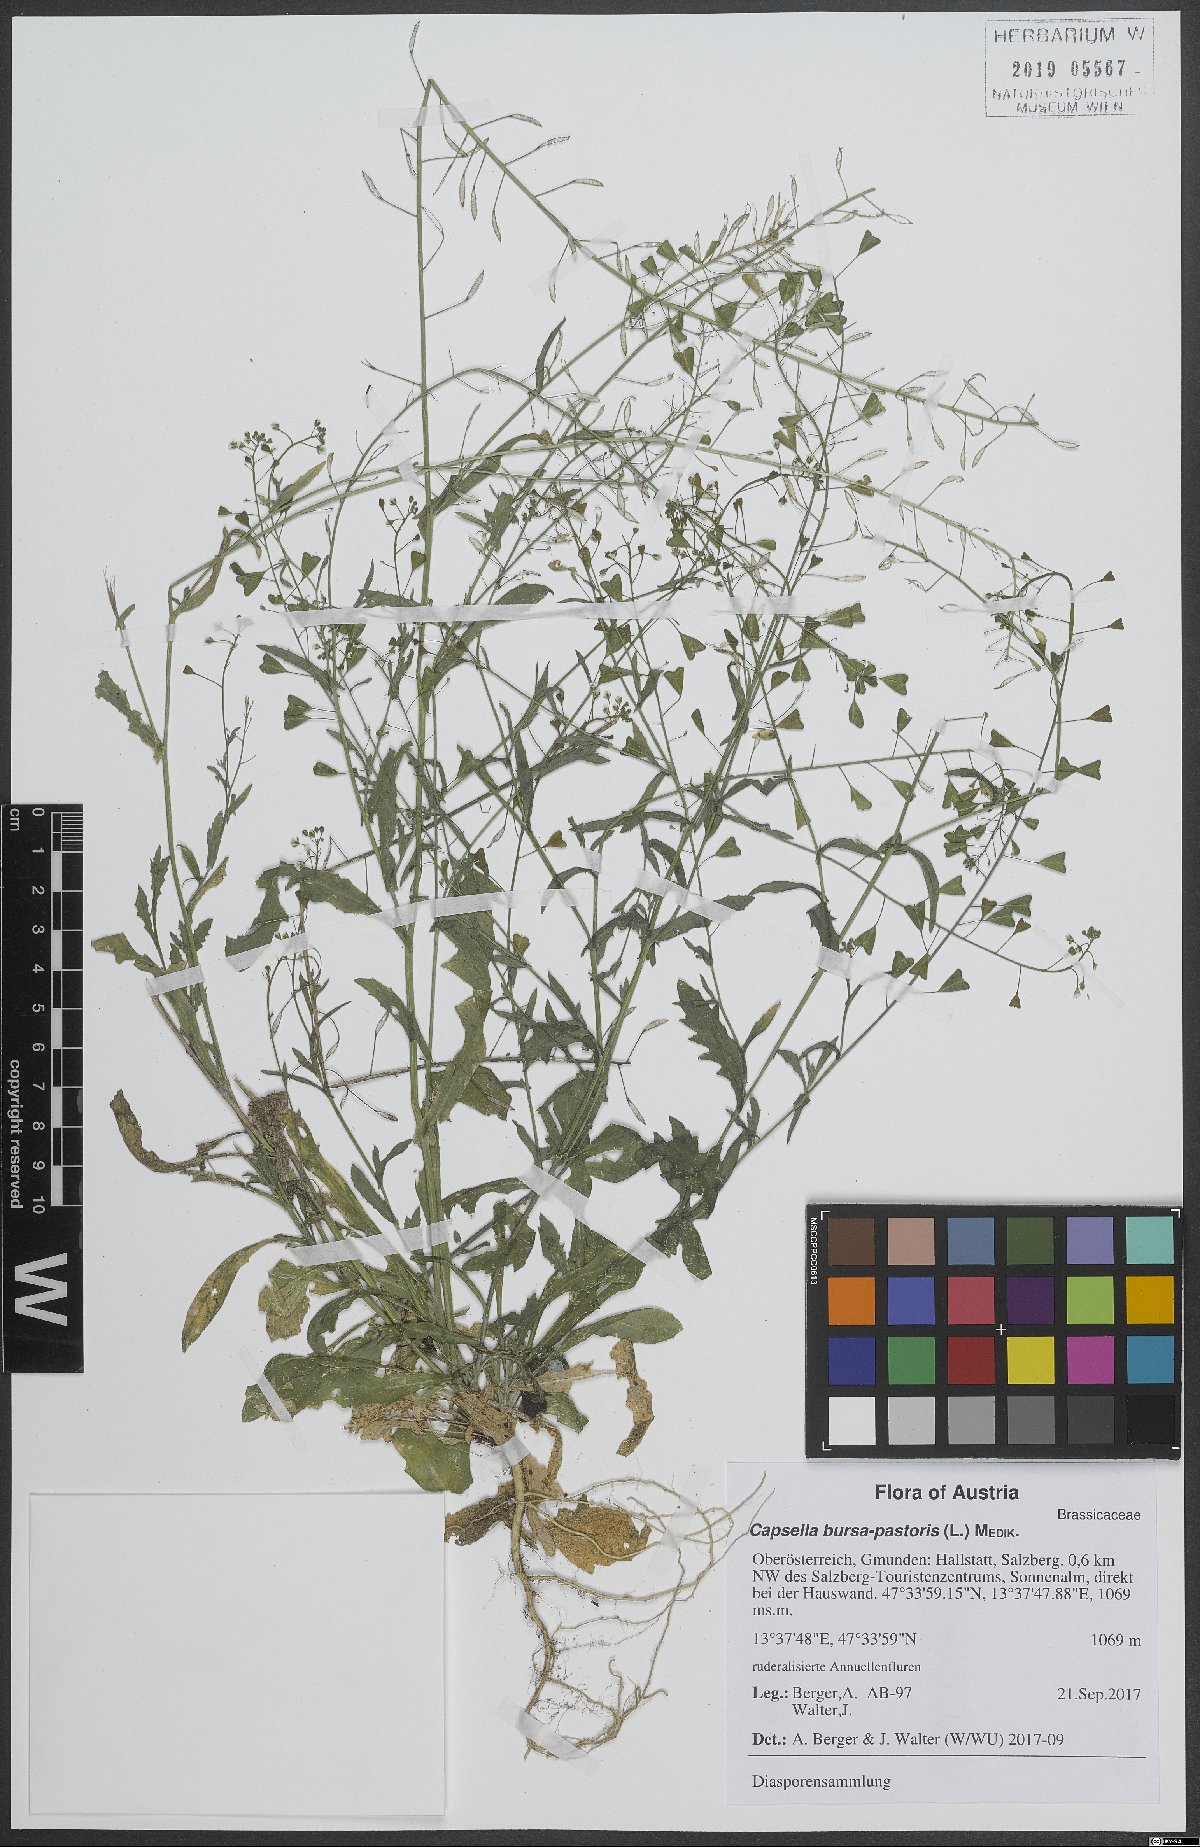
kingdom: Plantae
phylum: Tracheophyta
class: Magnoliopsida
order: Brassicales
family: Brassicaceae
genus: Capsella
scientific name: Capsella bursa-pastoris
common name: Shepherd's purse
